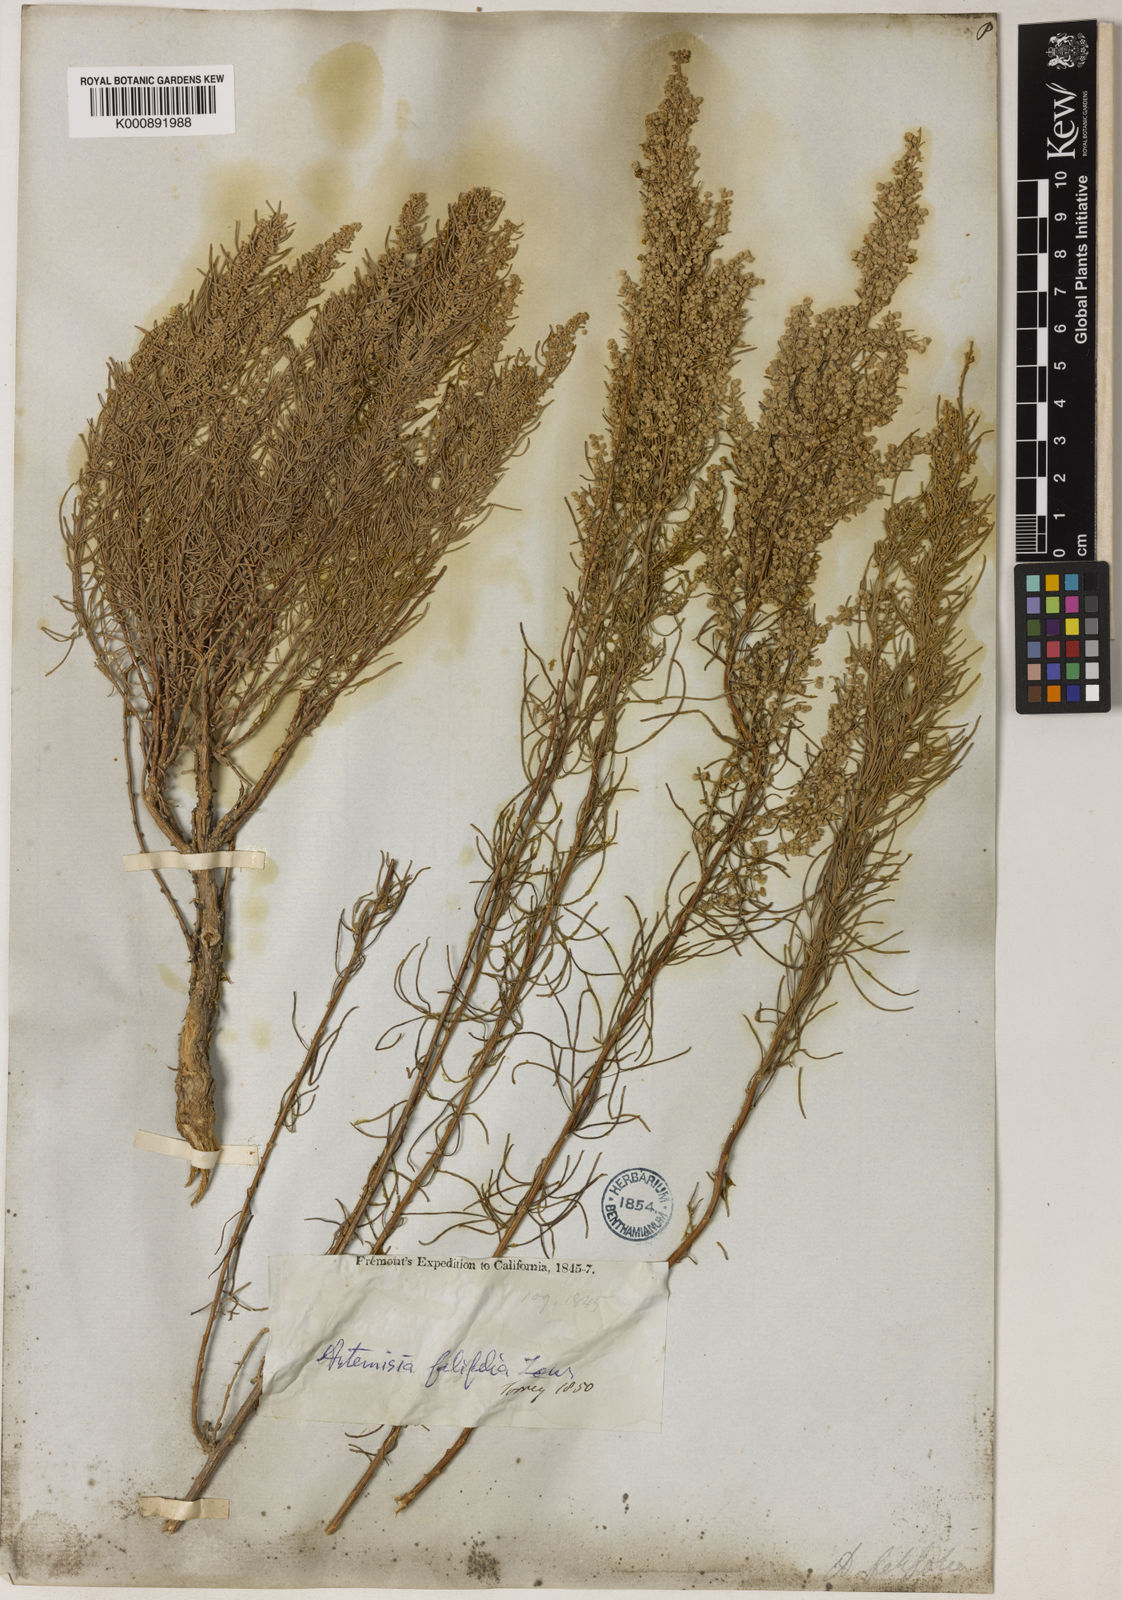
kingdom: Plantae
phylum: Tracheophyta
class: Magnoliopsida
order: Asterales
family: Asteraceae
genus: Artemisia
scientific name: Artemisia filifolia
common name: Sand-sage
